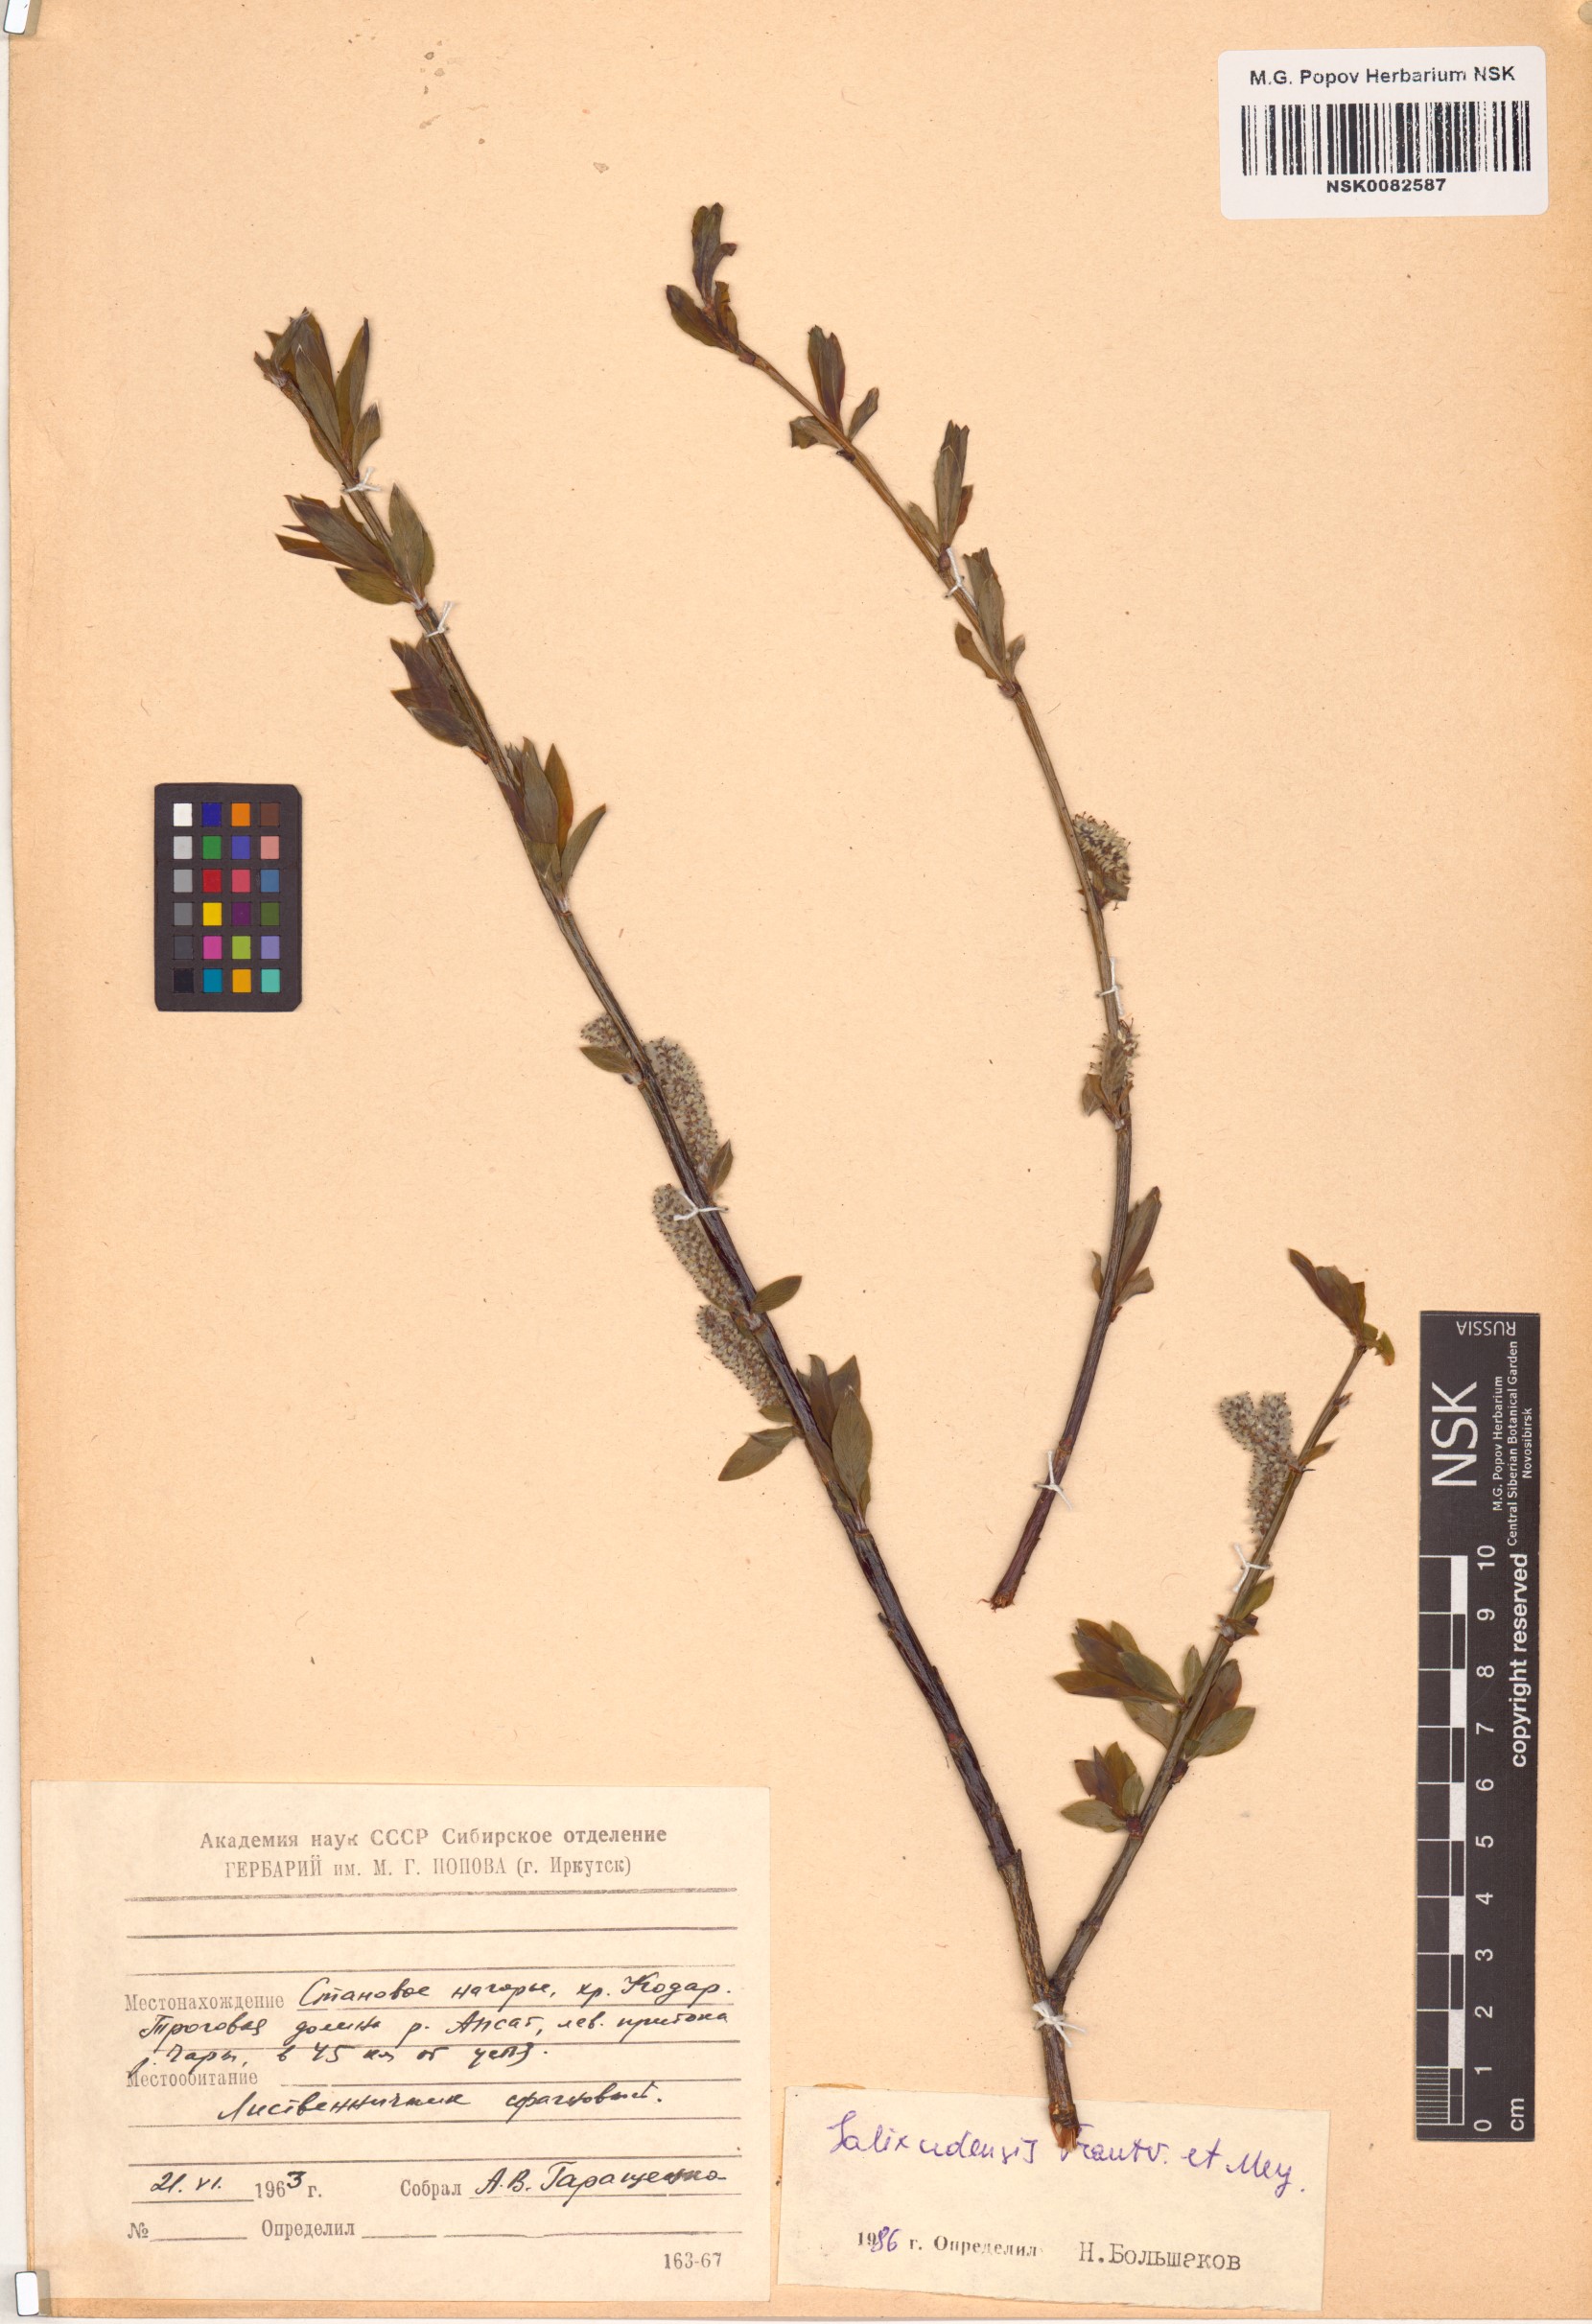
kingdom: Plantae
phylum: Tracheophyta
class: Magnoliopsida
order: Malpighiales
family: Salicaceae
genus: Salix
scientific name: Salix udensis
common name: Sachalin willow
